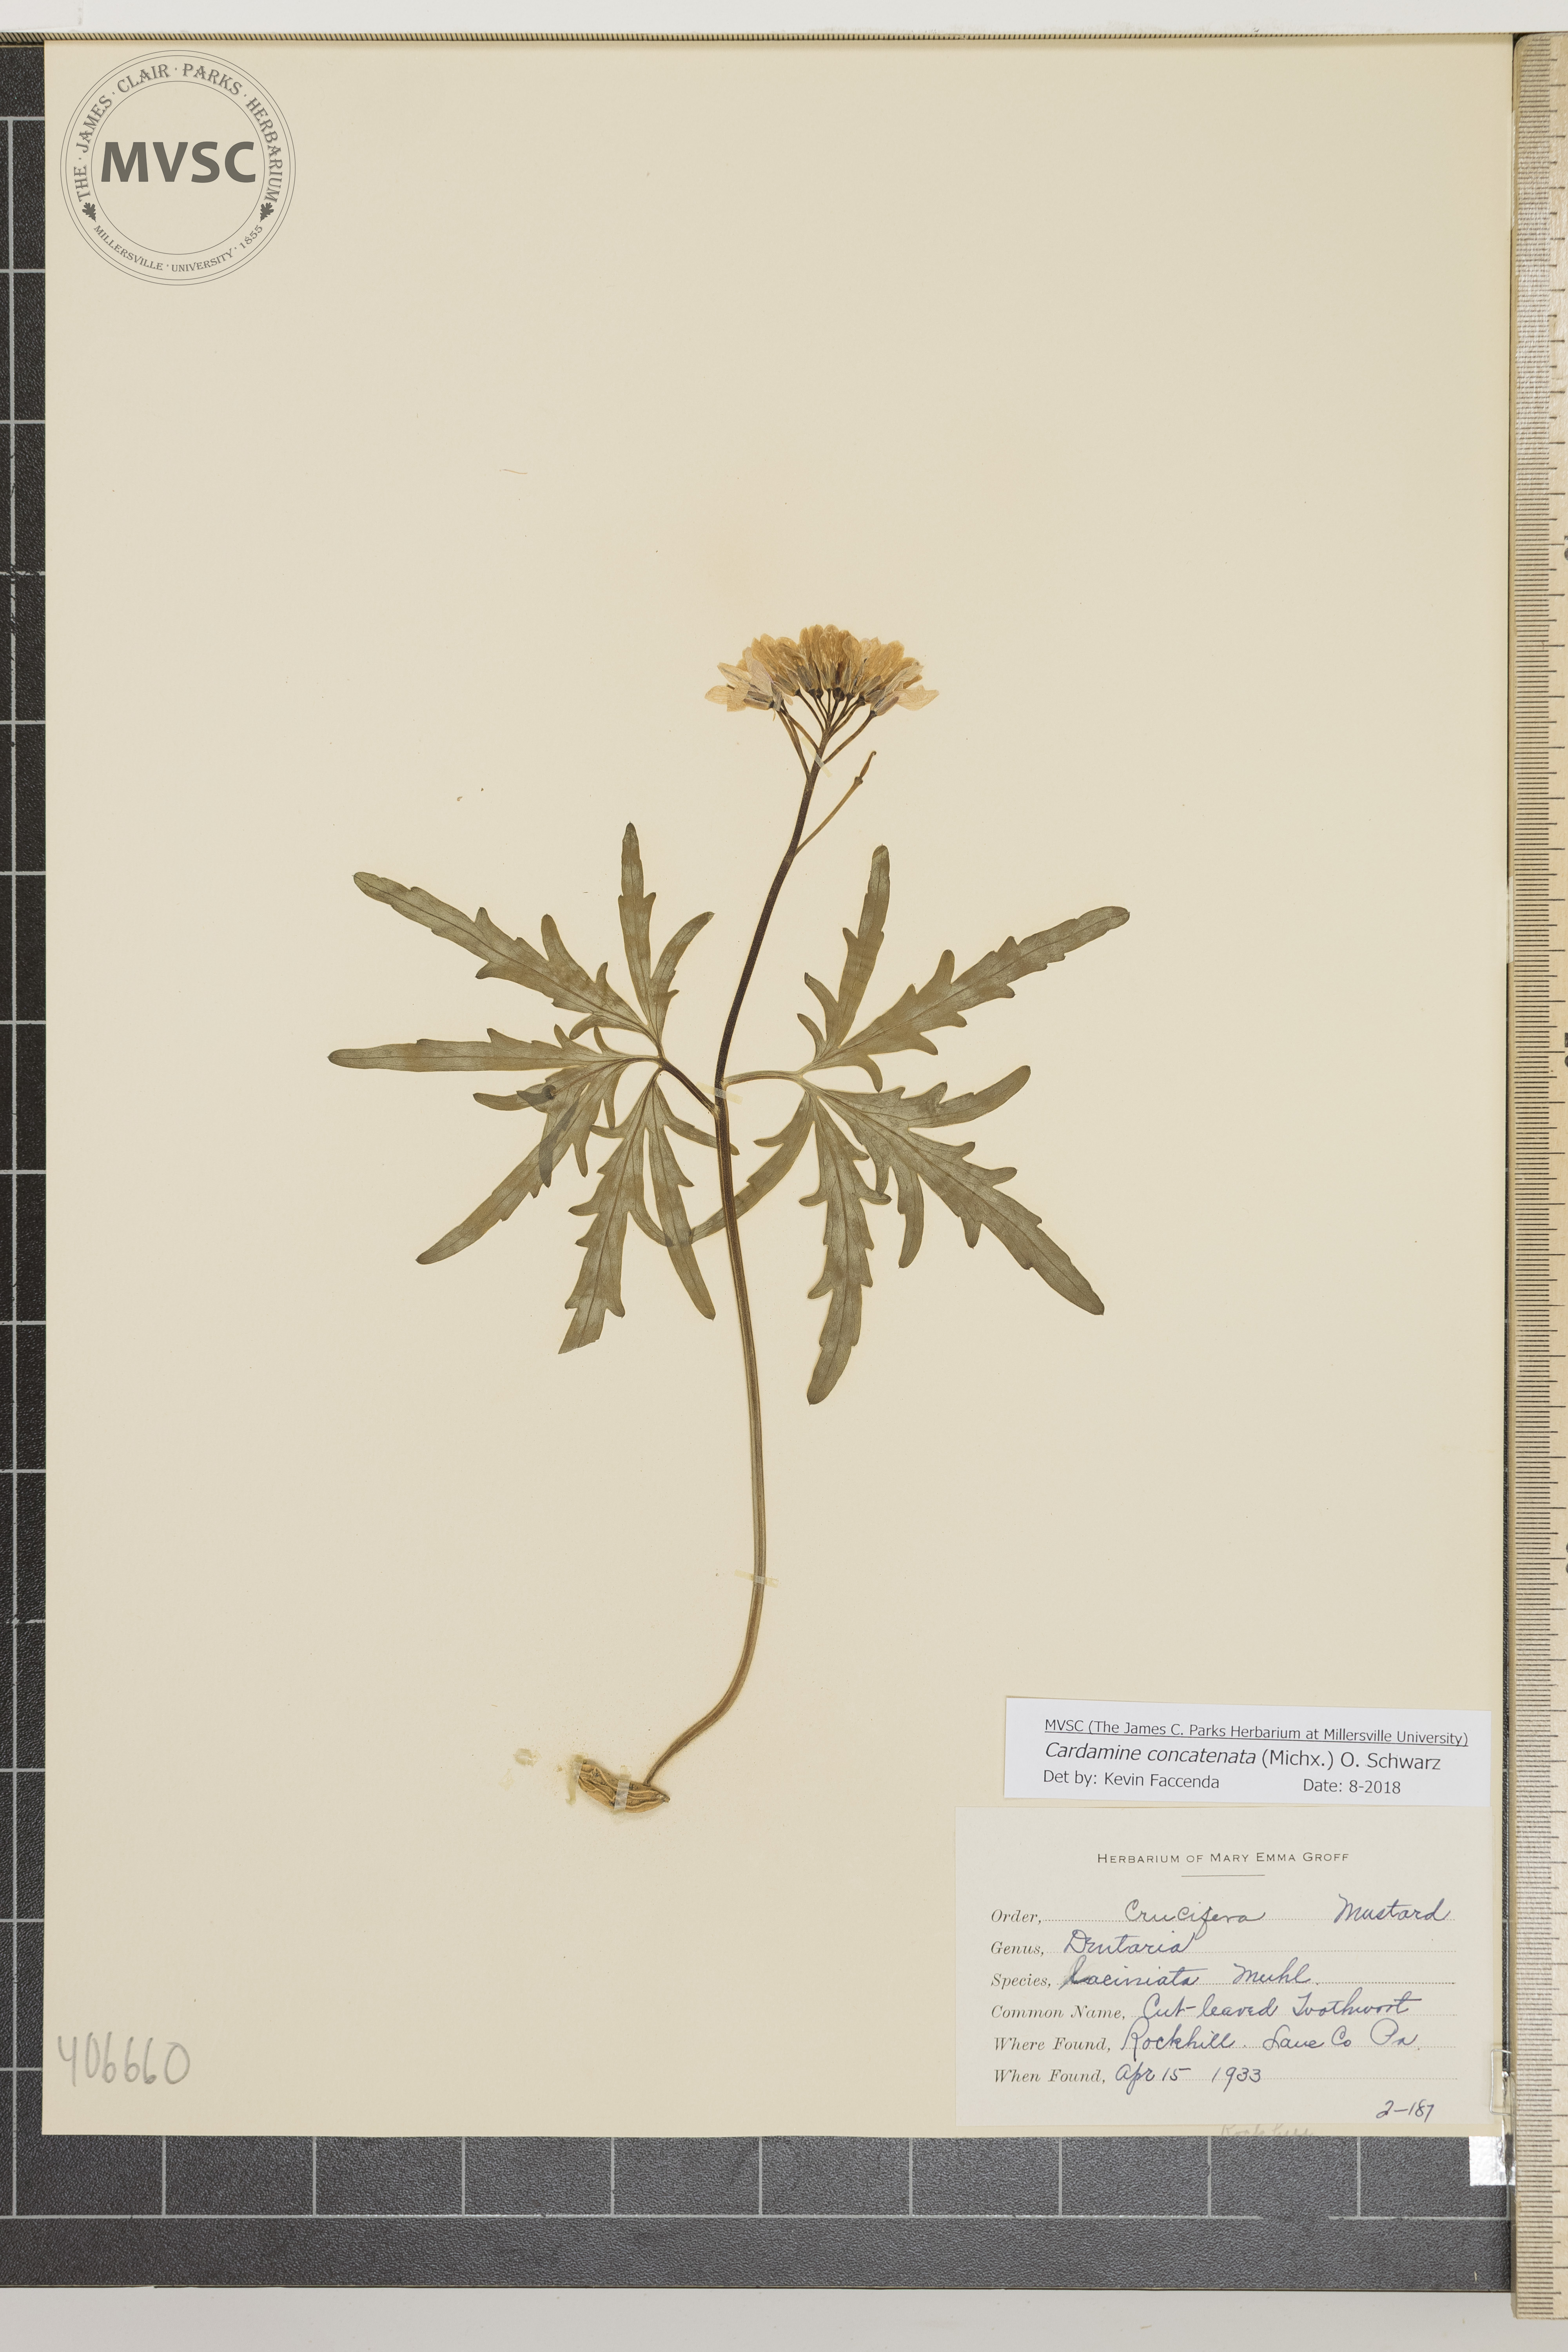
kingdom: Plantae
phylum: Tracheophyta
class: Magnoliopsida
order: Brassicales
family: Brassicaceae
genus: Cardamine
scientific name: Cardamine concatenata
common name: Cut-leaved Toothwort
